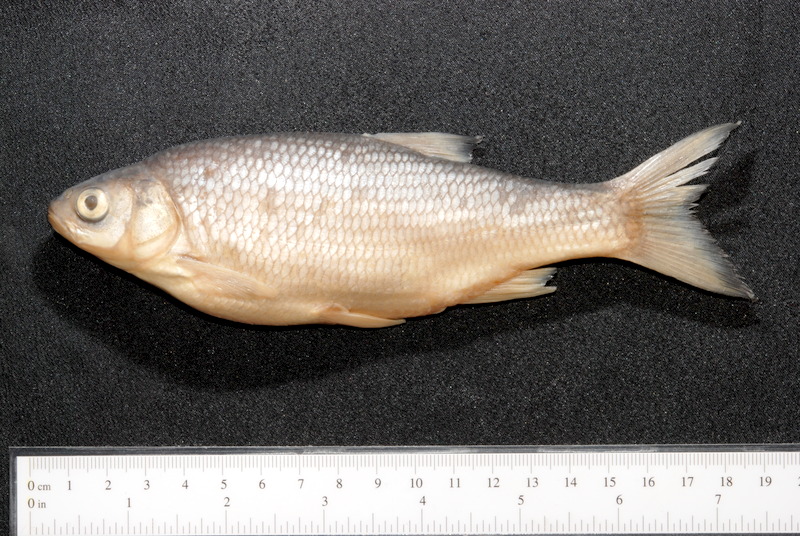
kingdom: Animalia
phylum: Chordata
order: Cypriniformes
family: Cyprinidae
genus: Leuciscus
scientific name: Leuciscus idus
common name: Ide
